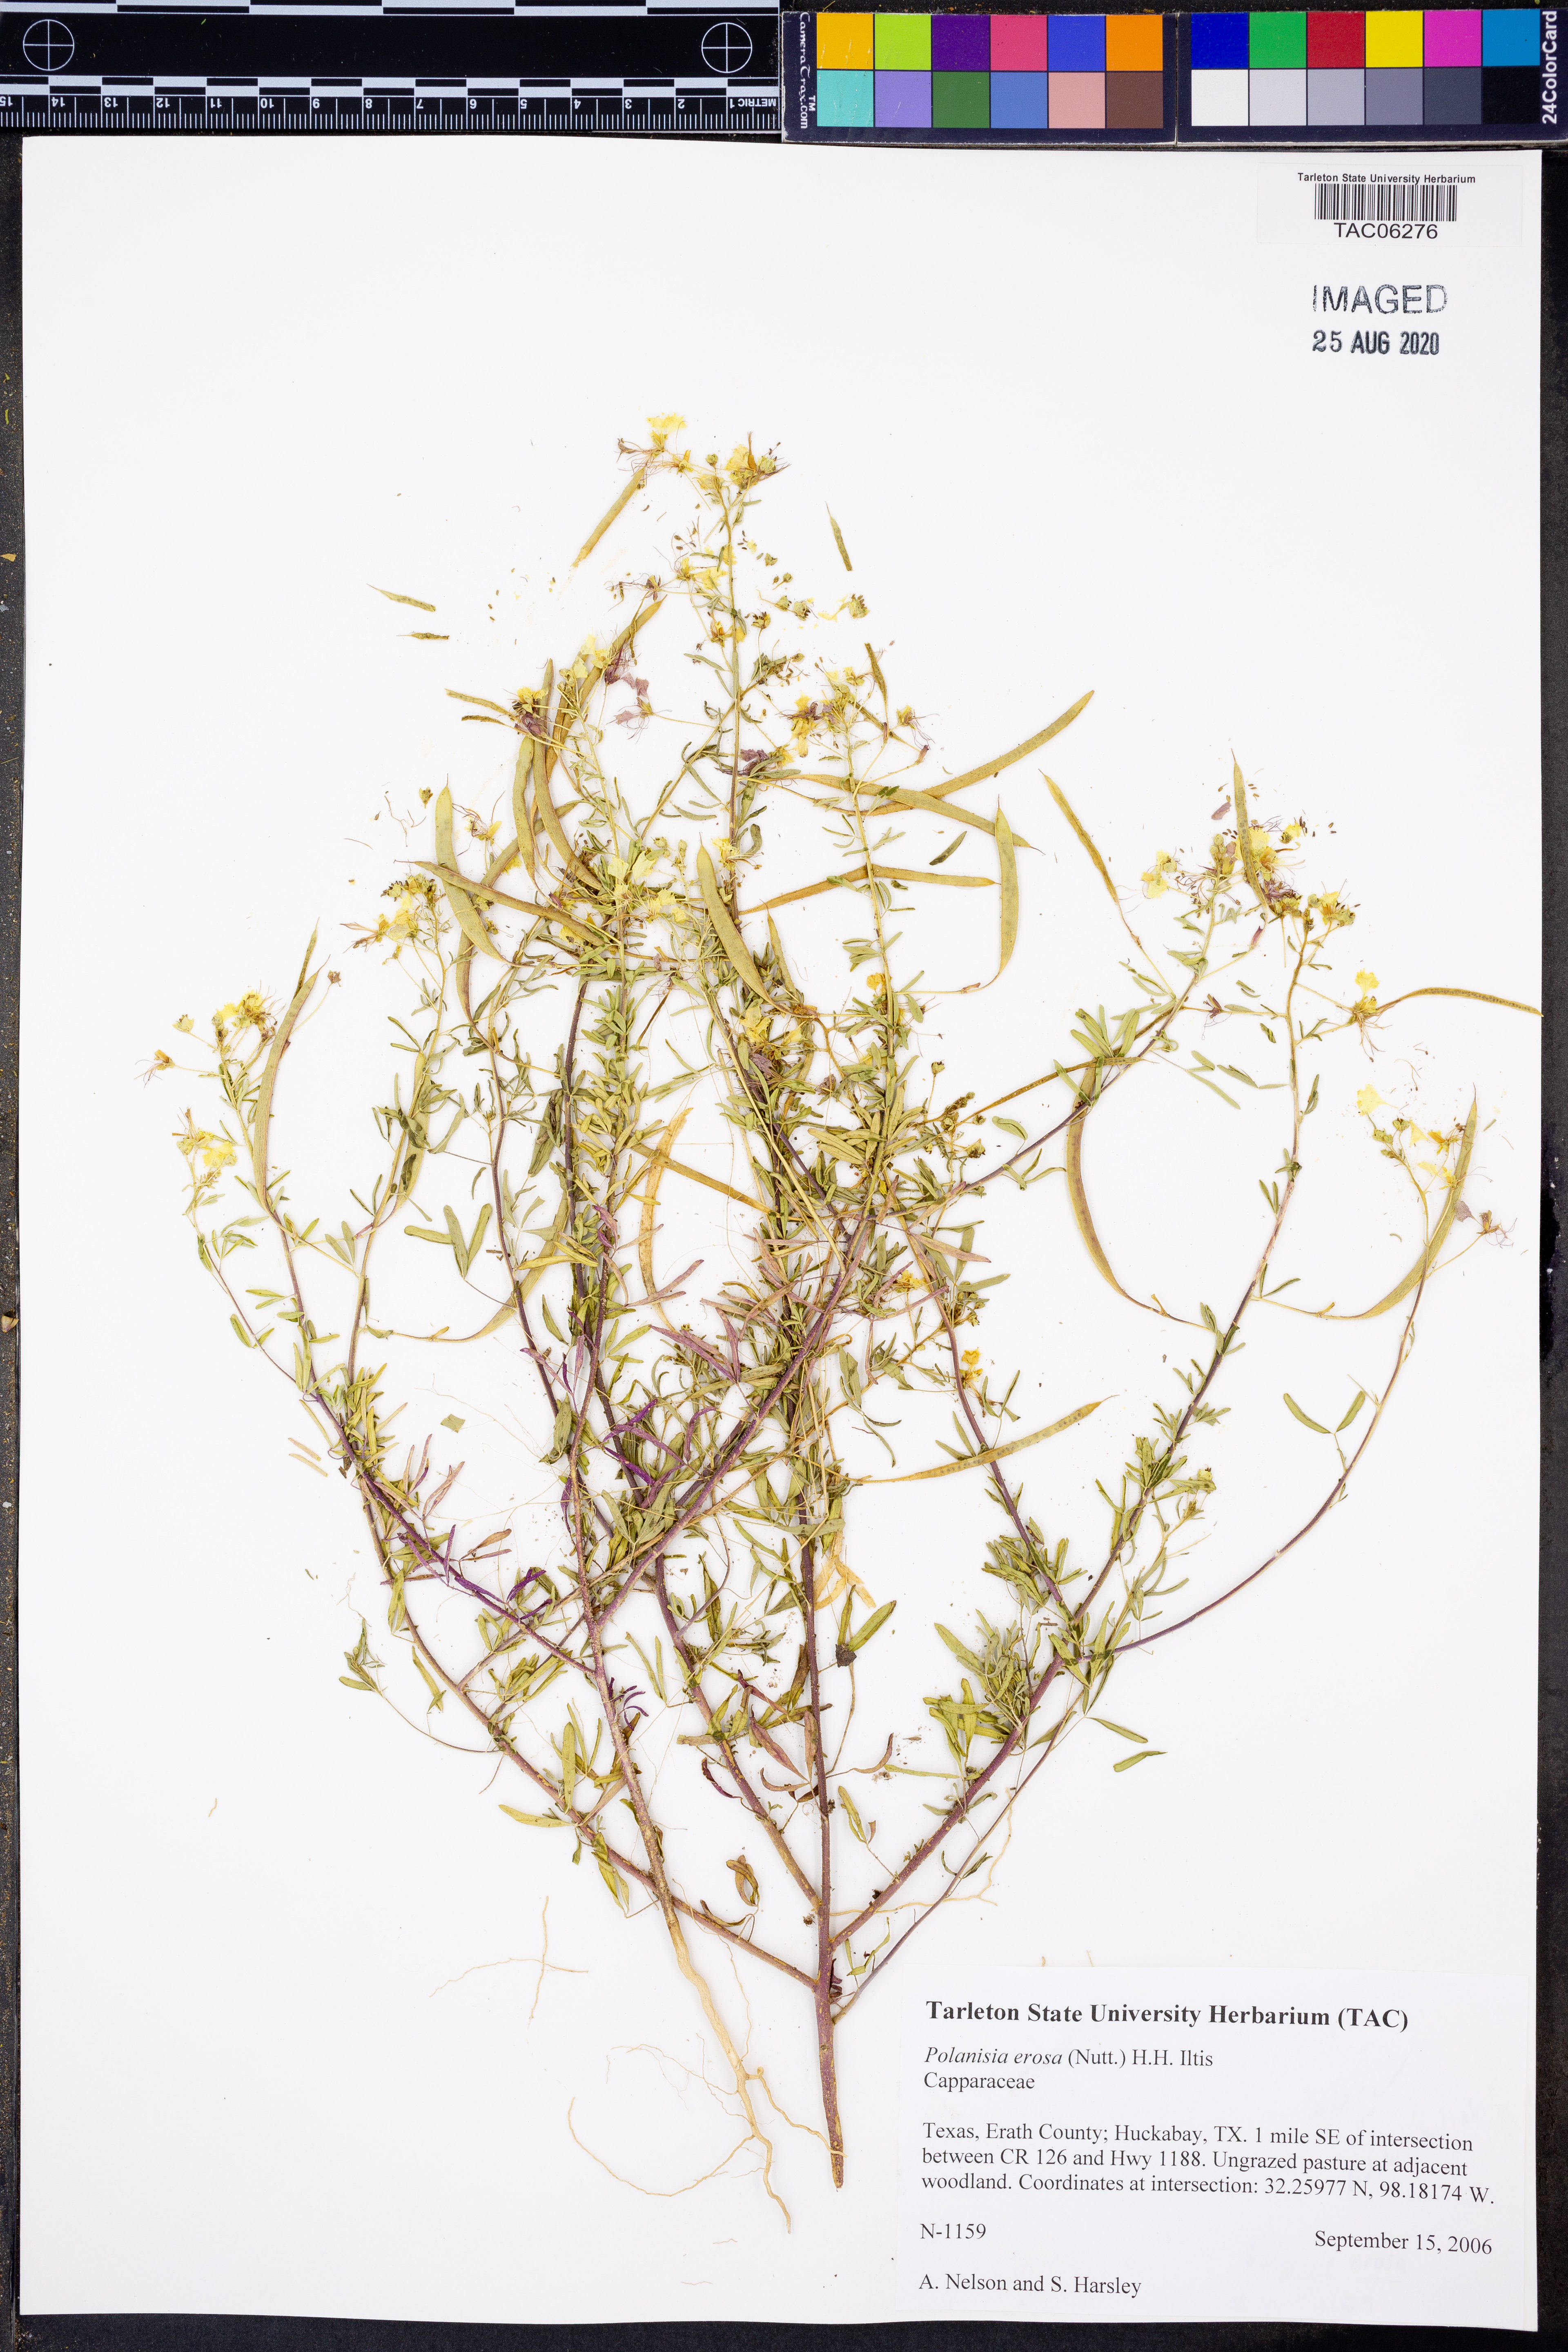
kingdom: Plantae
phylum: Tracheophyta
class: Magnoliopsida
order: Brassicales
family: Cleomaceae
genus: Polanisia
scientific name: Polanisia erosa
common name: Large clammyweed
